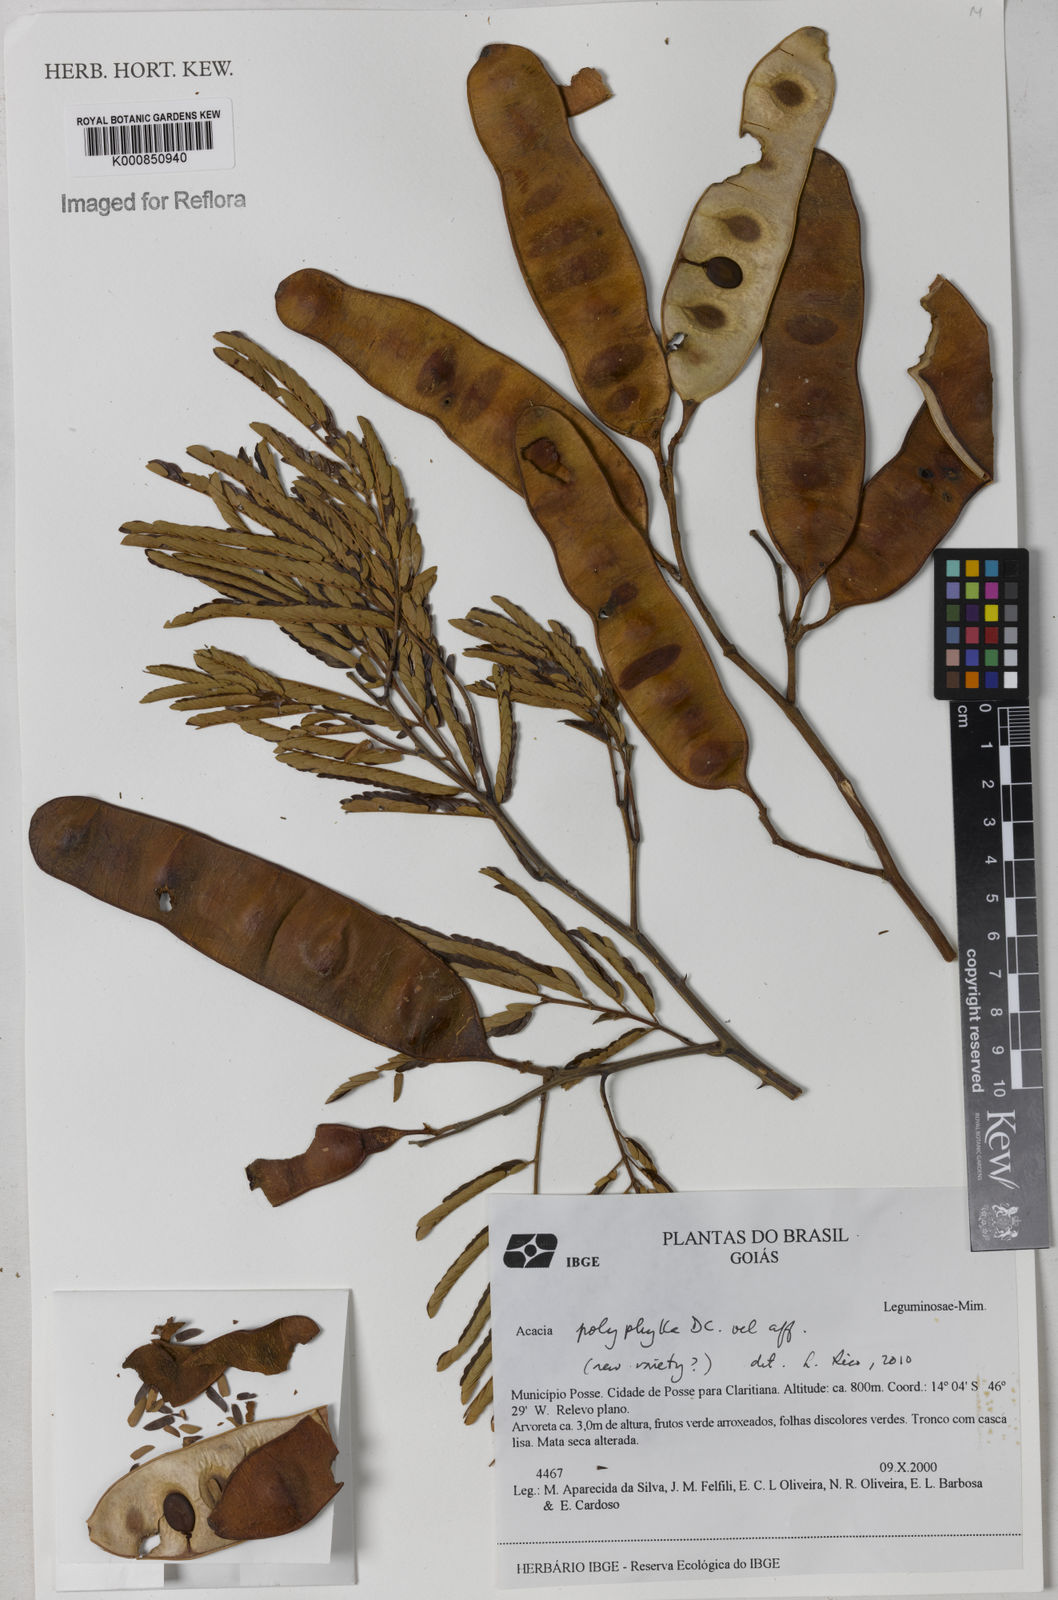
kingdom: Plantae
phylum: Tracheophyta
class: Magnoliopsida
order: Fabales
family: Fabaceae
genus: Senegalia
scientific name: Senegalia polyphylla
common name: White-tamarind
